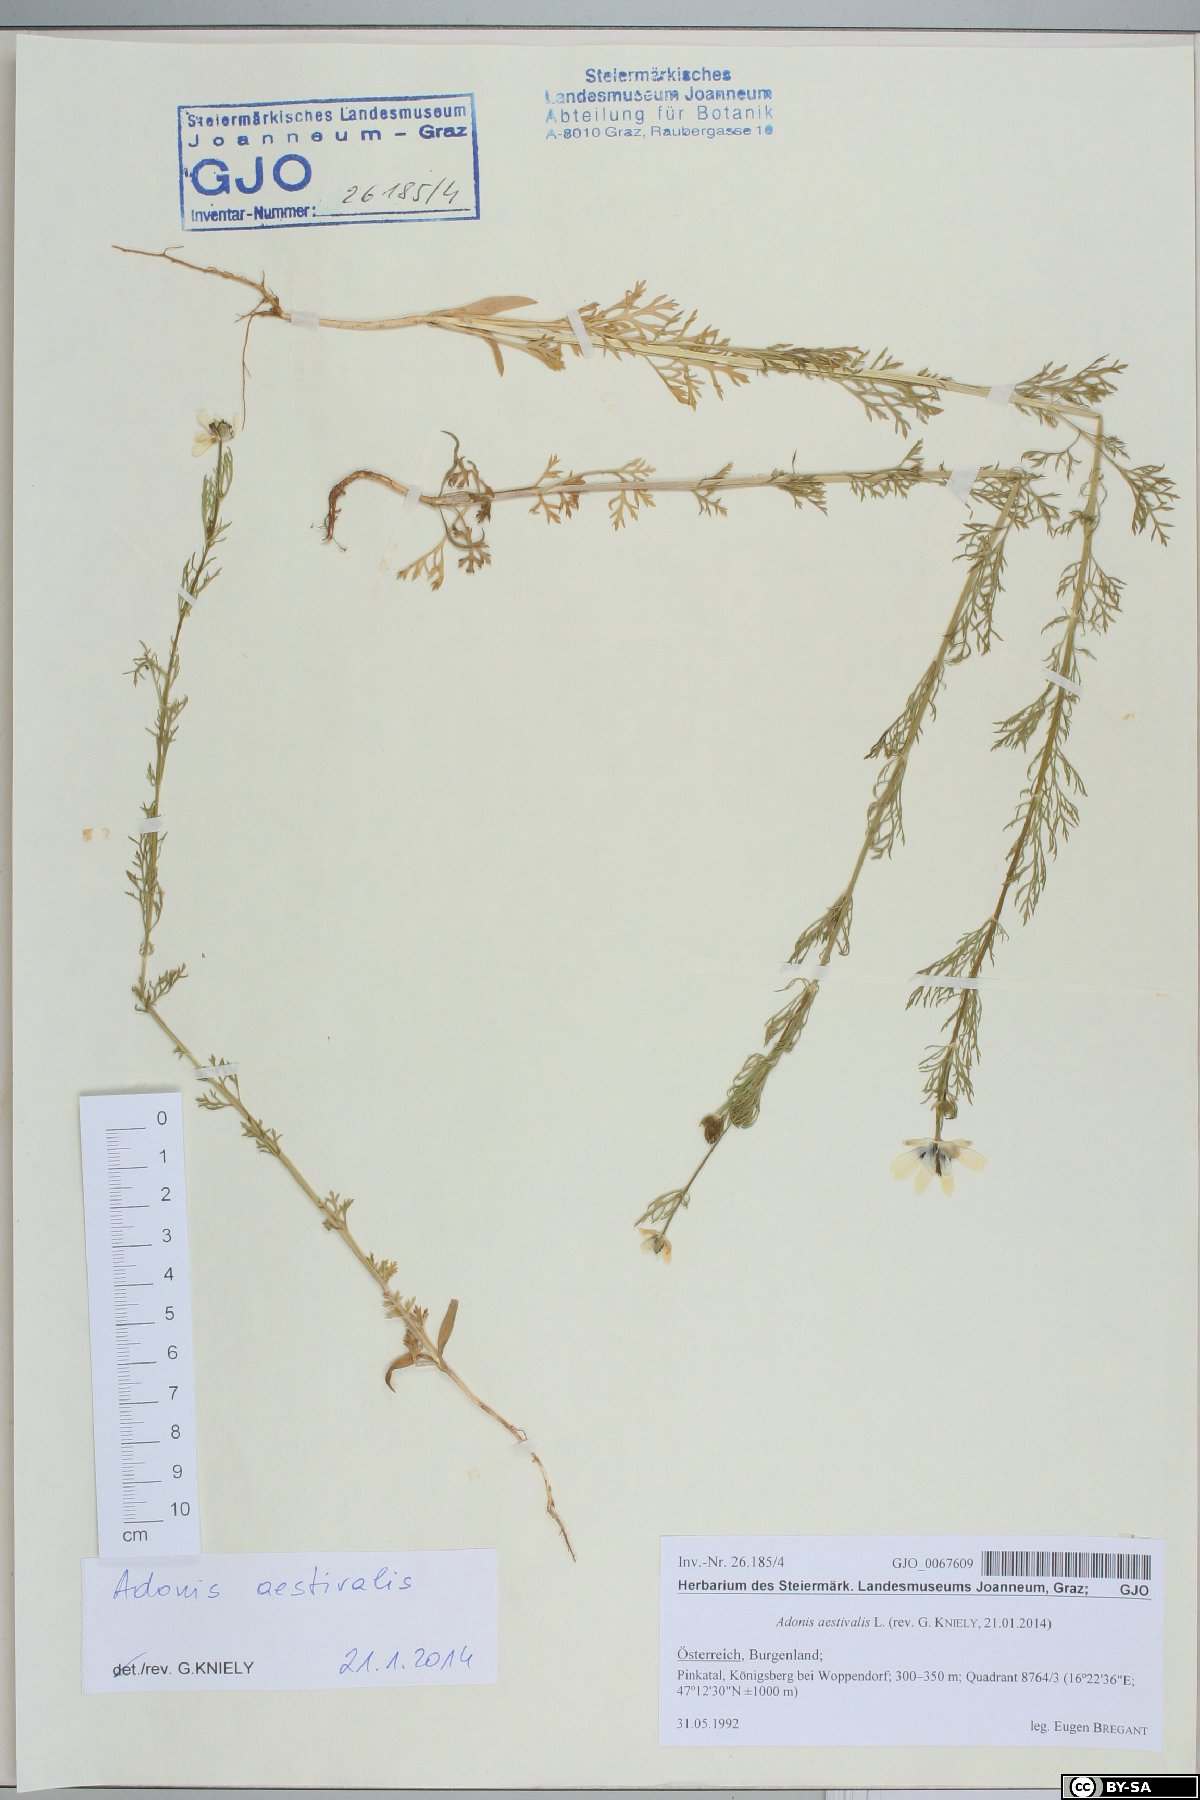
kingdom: Plantae
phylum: Tracheophyta
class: Magnoliopsida
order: Ranunculales
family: Ranunculaceae
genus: Adonis
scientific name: Adonis aestivalis
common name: Summer pheasant's-eye
